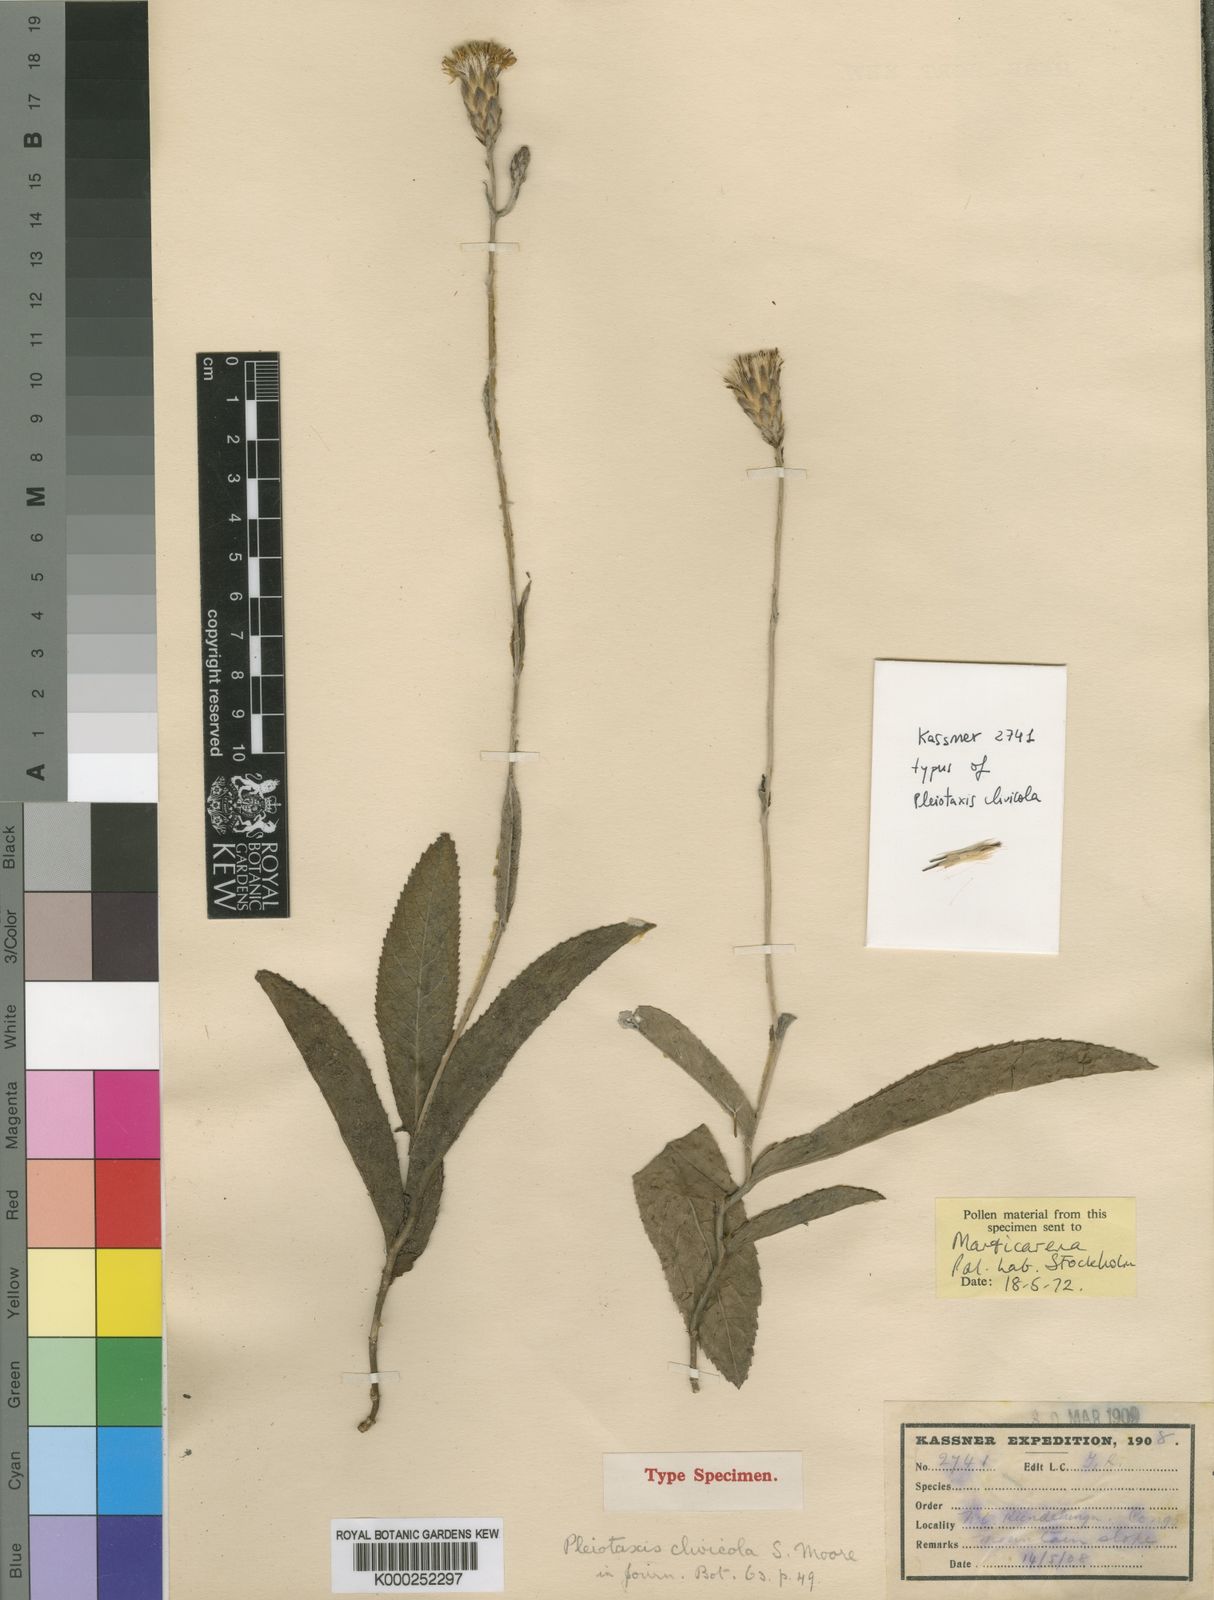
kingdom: Plantae
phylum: Tracheophyta
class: Magnoliopsida
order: Asterales
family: Asteraceae
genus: Pleiotaxis
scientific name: Pleiotaxis subpaniculata
